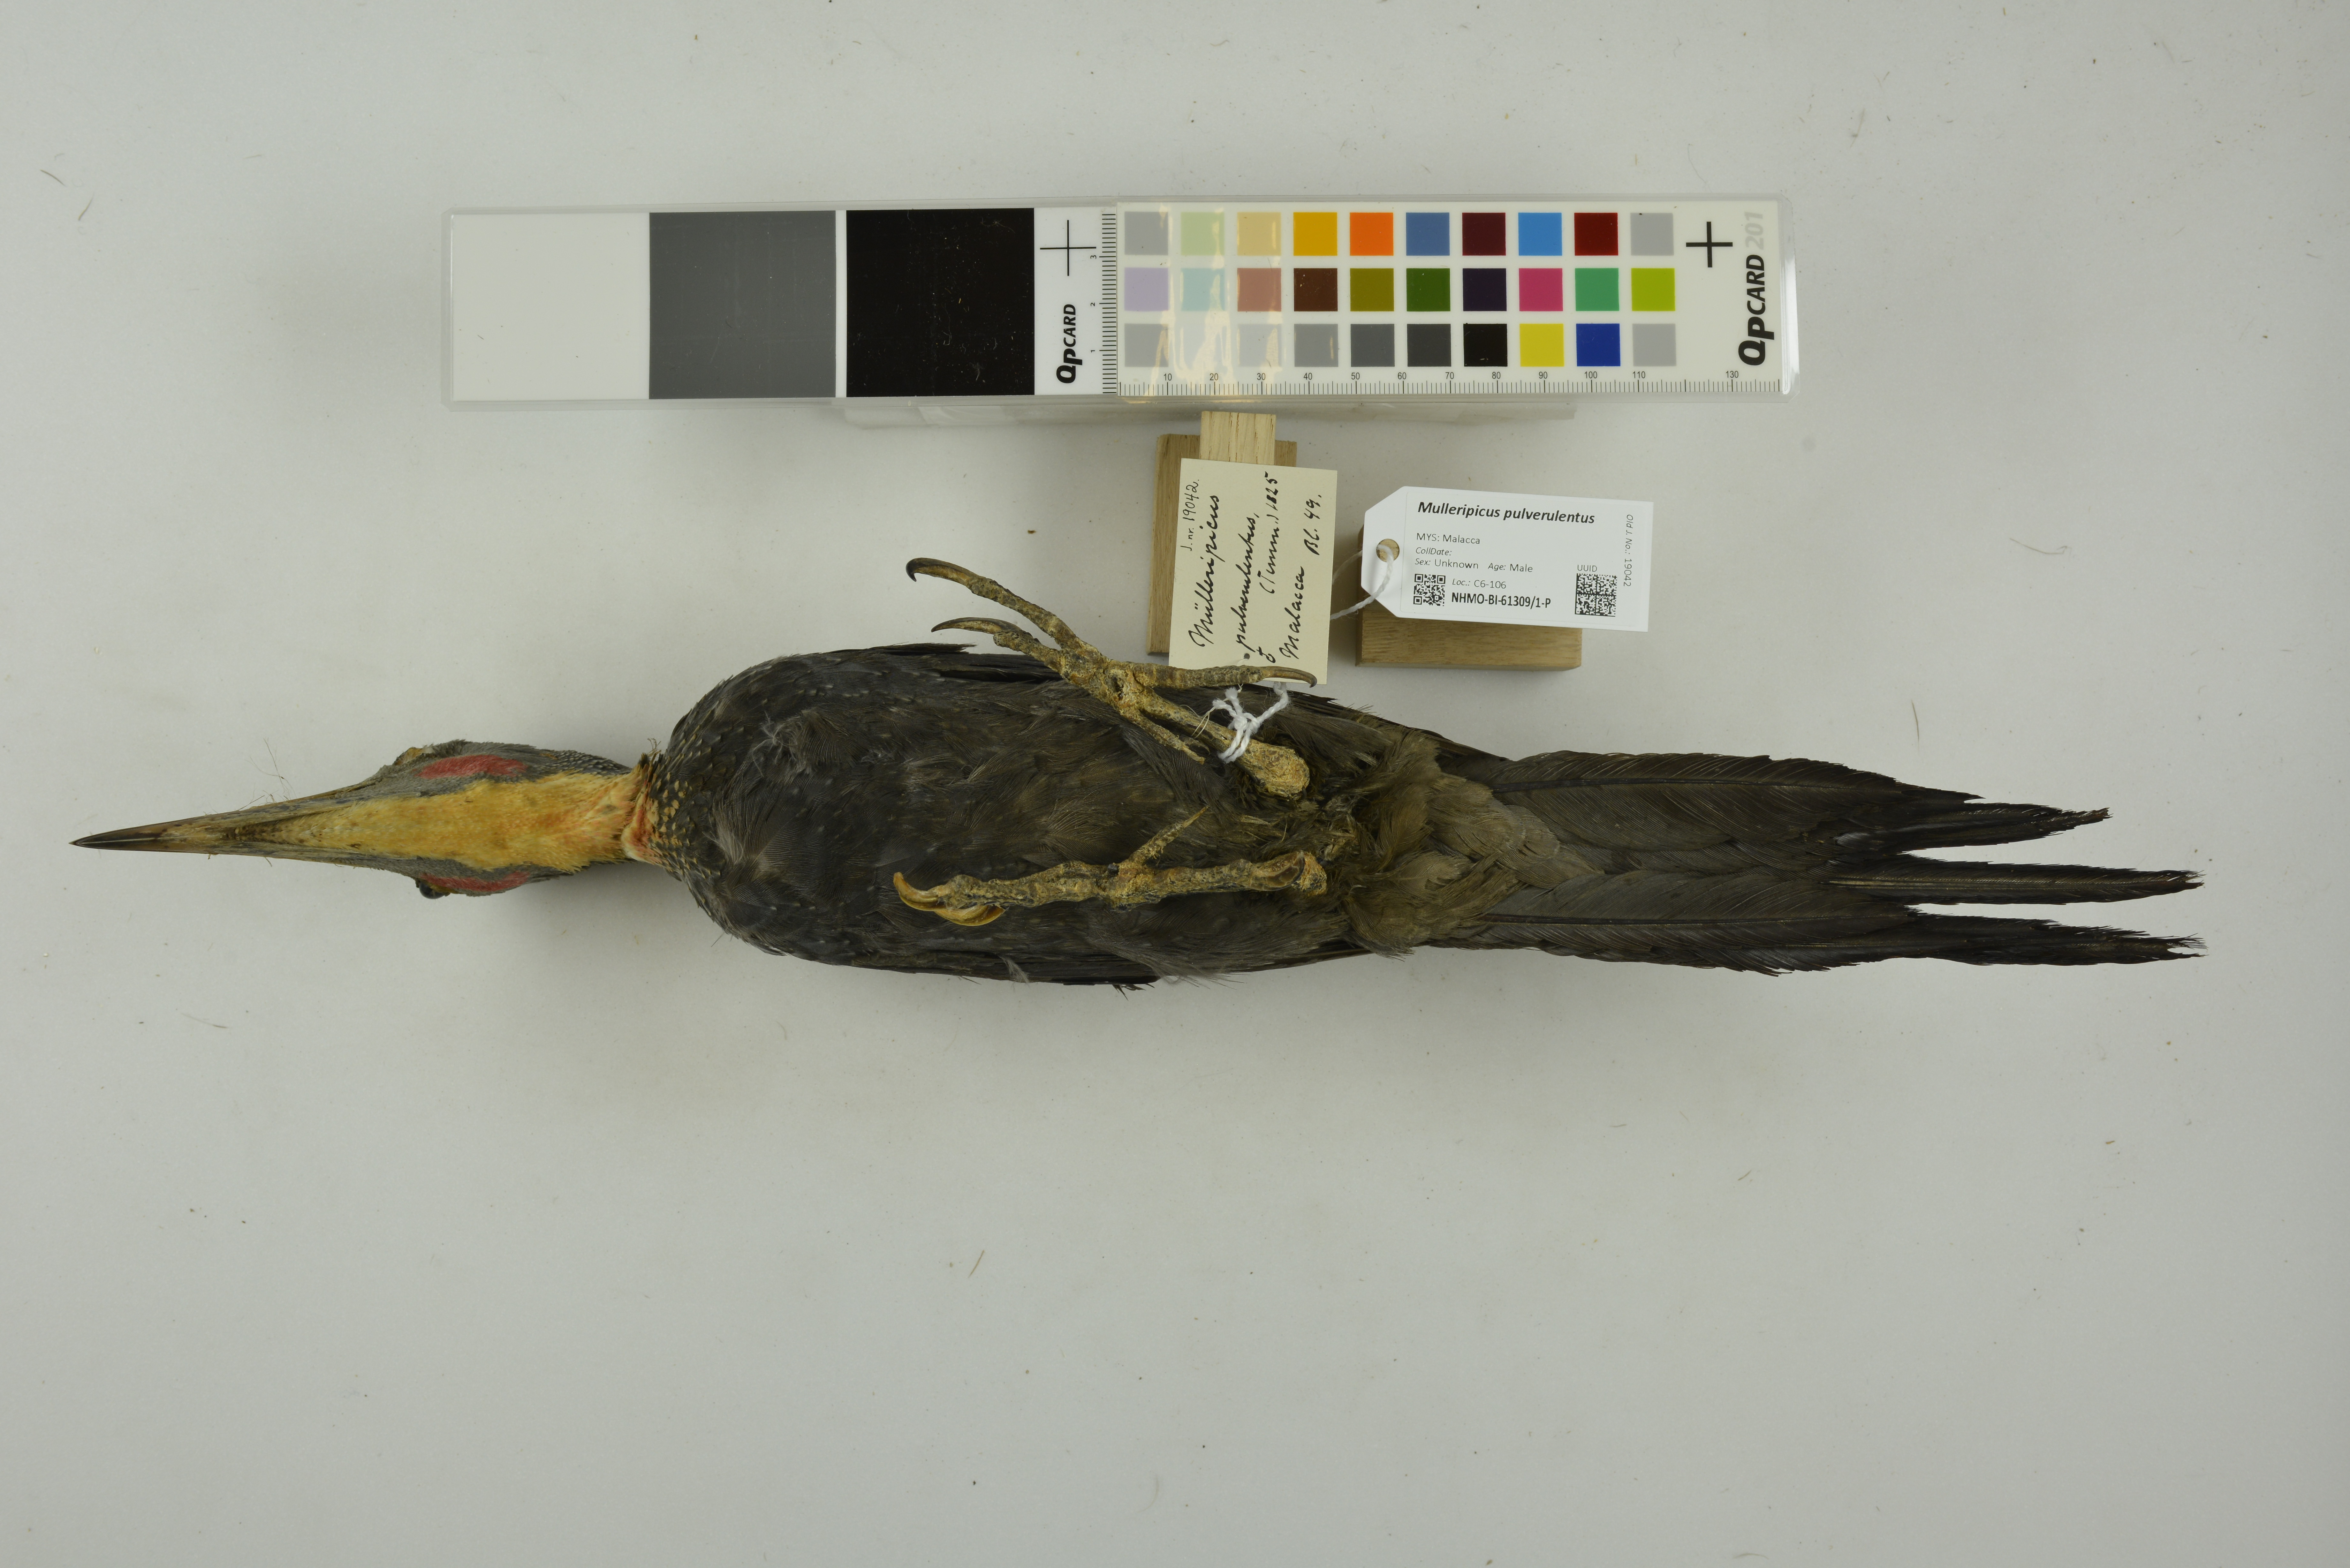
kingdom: Animalia
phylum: Chordata
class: Aves
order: Piciformes
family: Picidae
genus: Mulleripicus
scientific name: Mulleripicus pulverulentus
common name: Great slaty woodpecker
